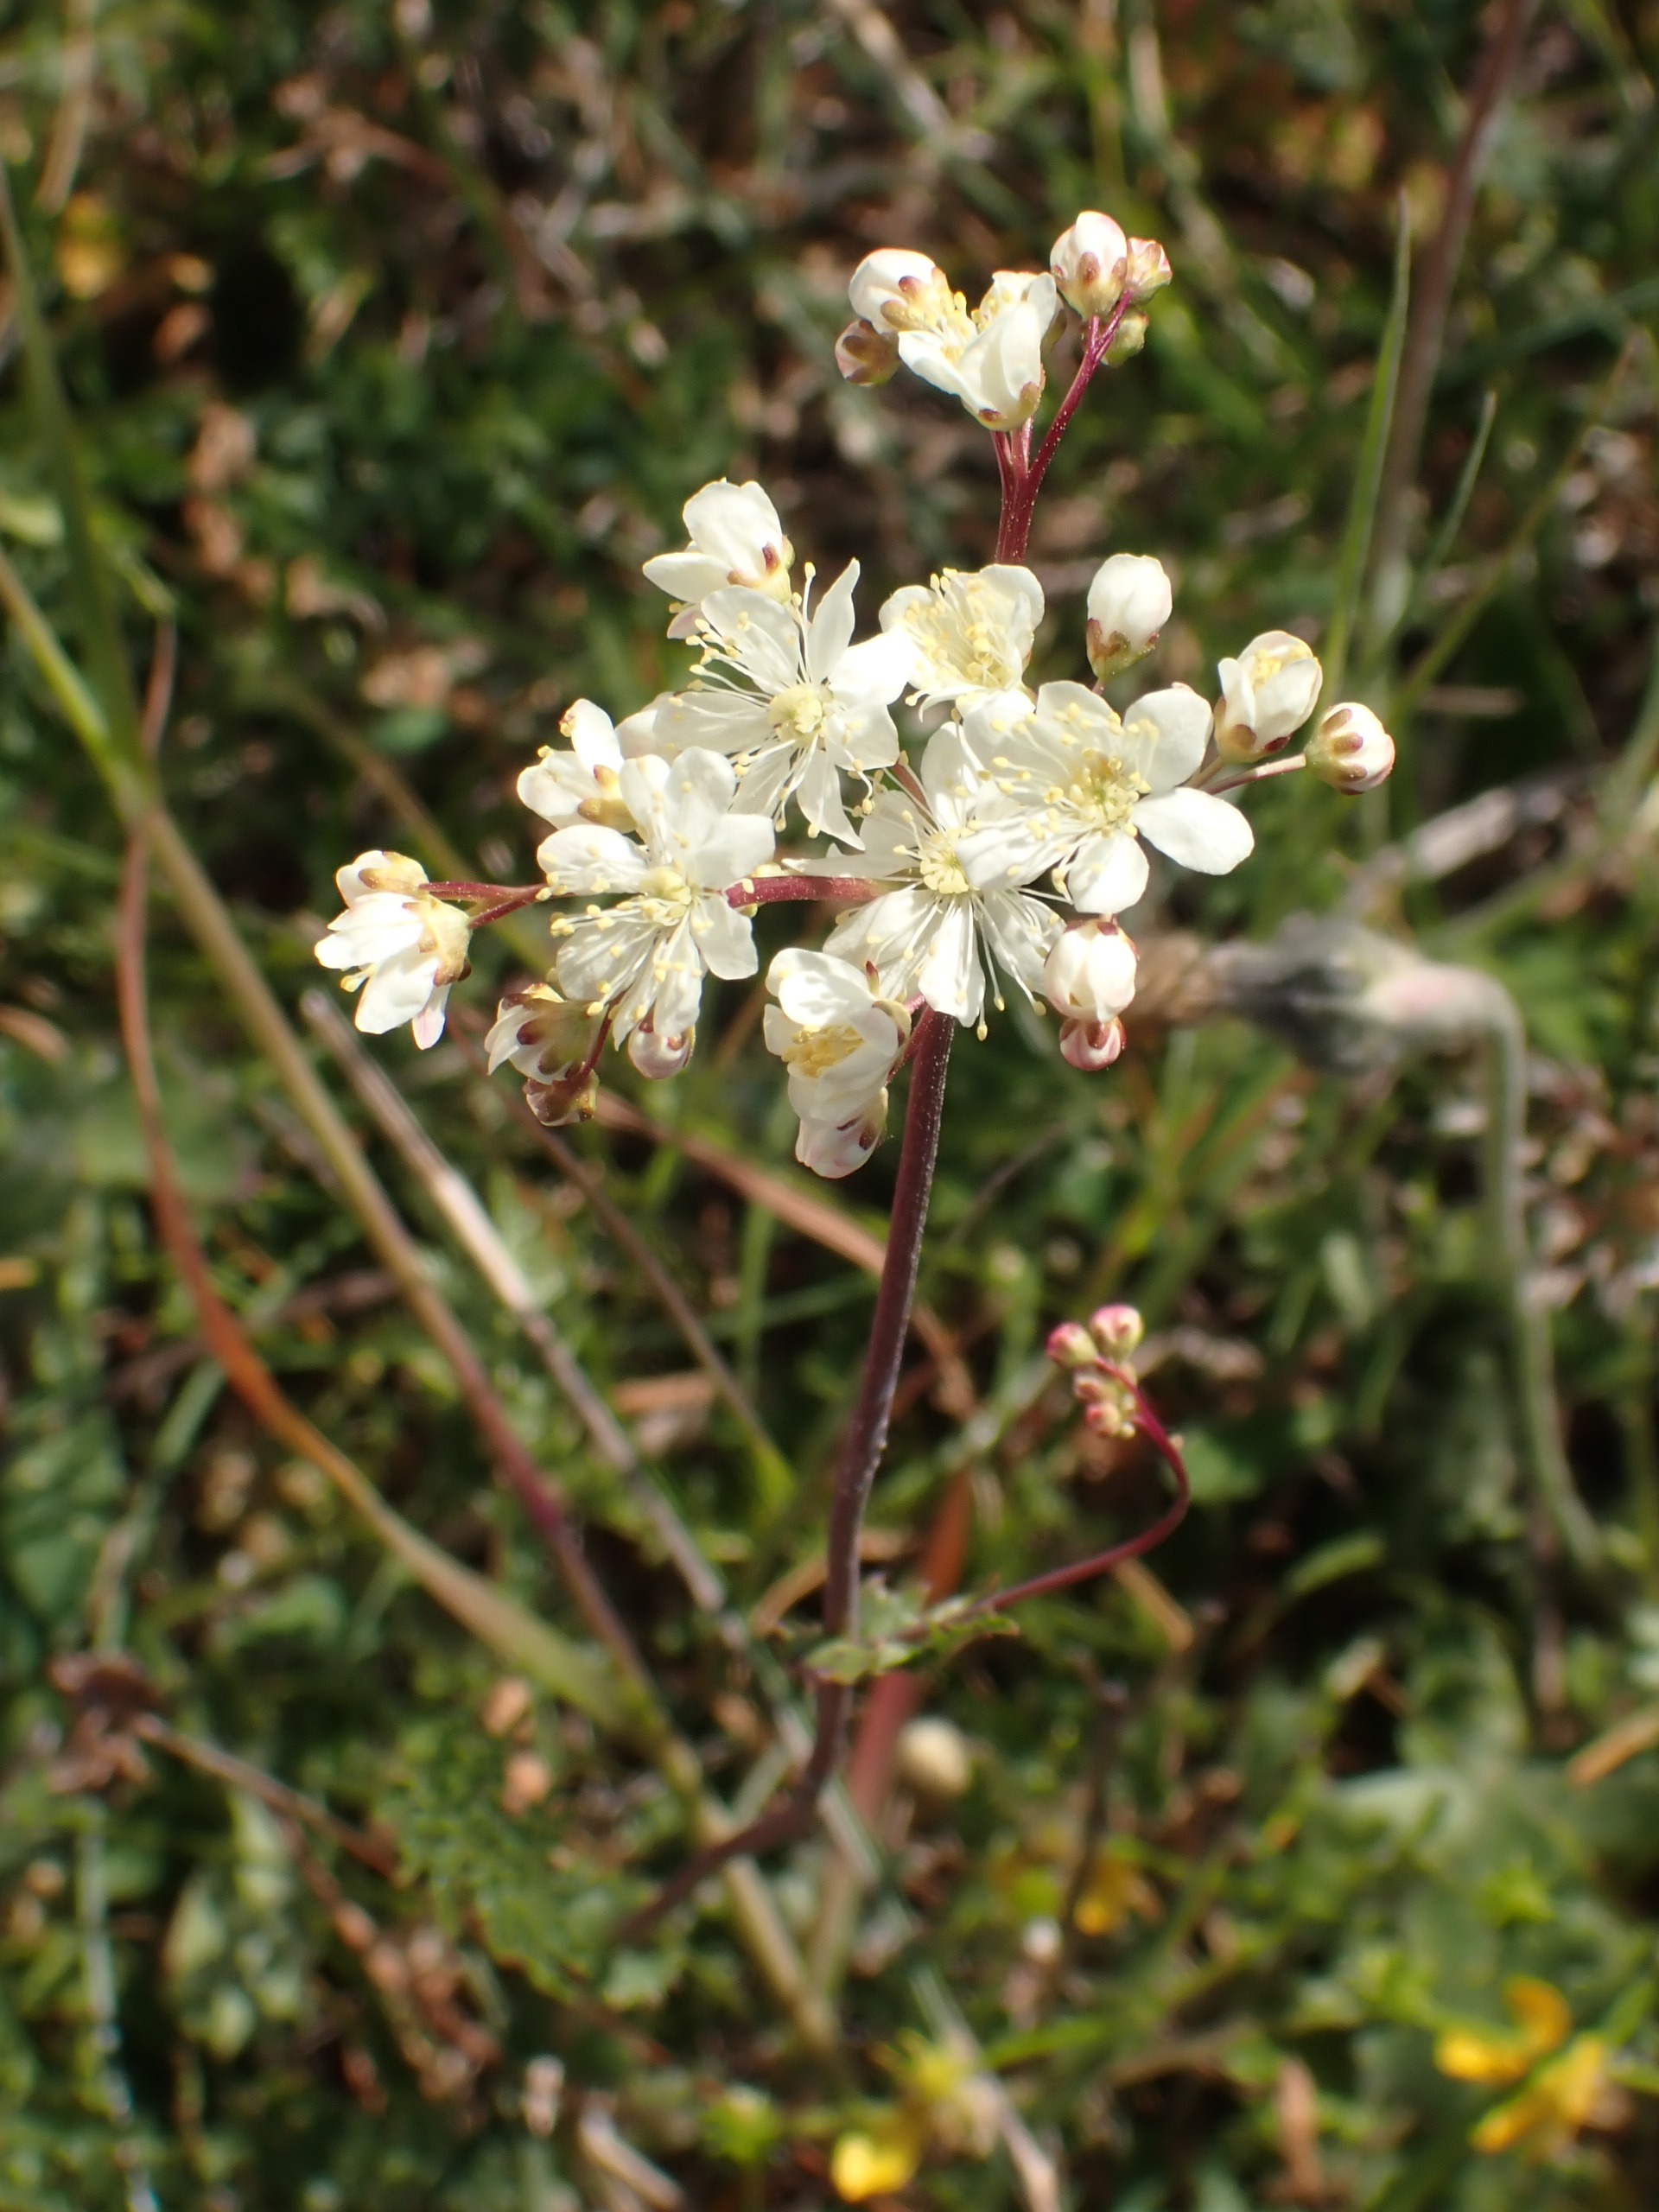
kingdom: Plantae
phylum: Tracheophyta
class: Magnoliopsida
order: Rosales
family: Rosaceae
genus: Filipendula
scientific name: Filipendula vulgaris
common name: Knoldet mjødurt
